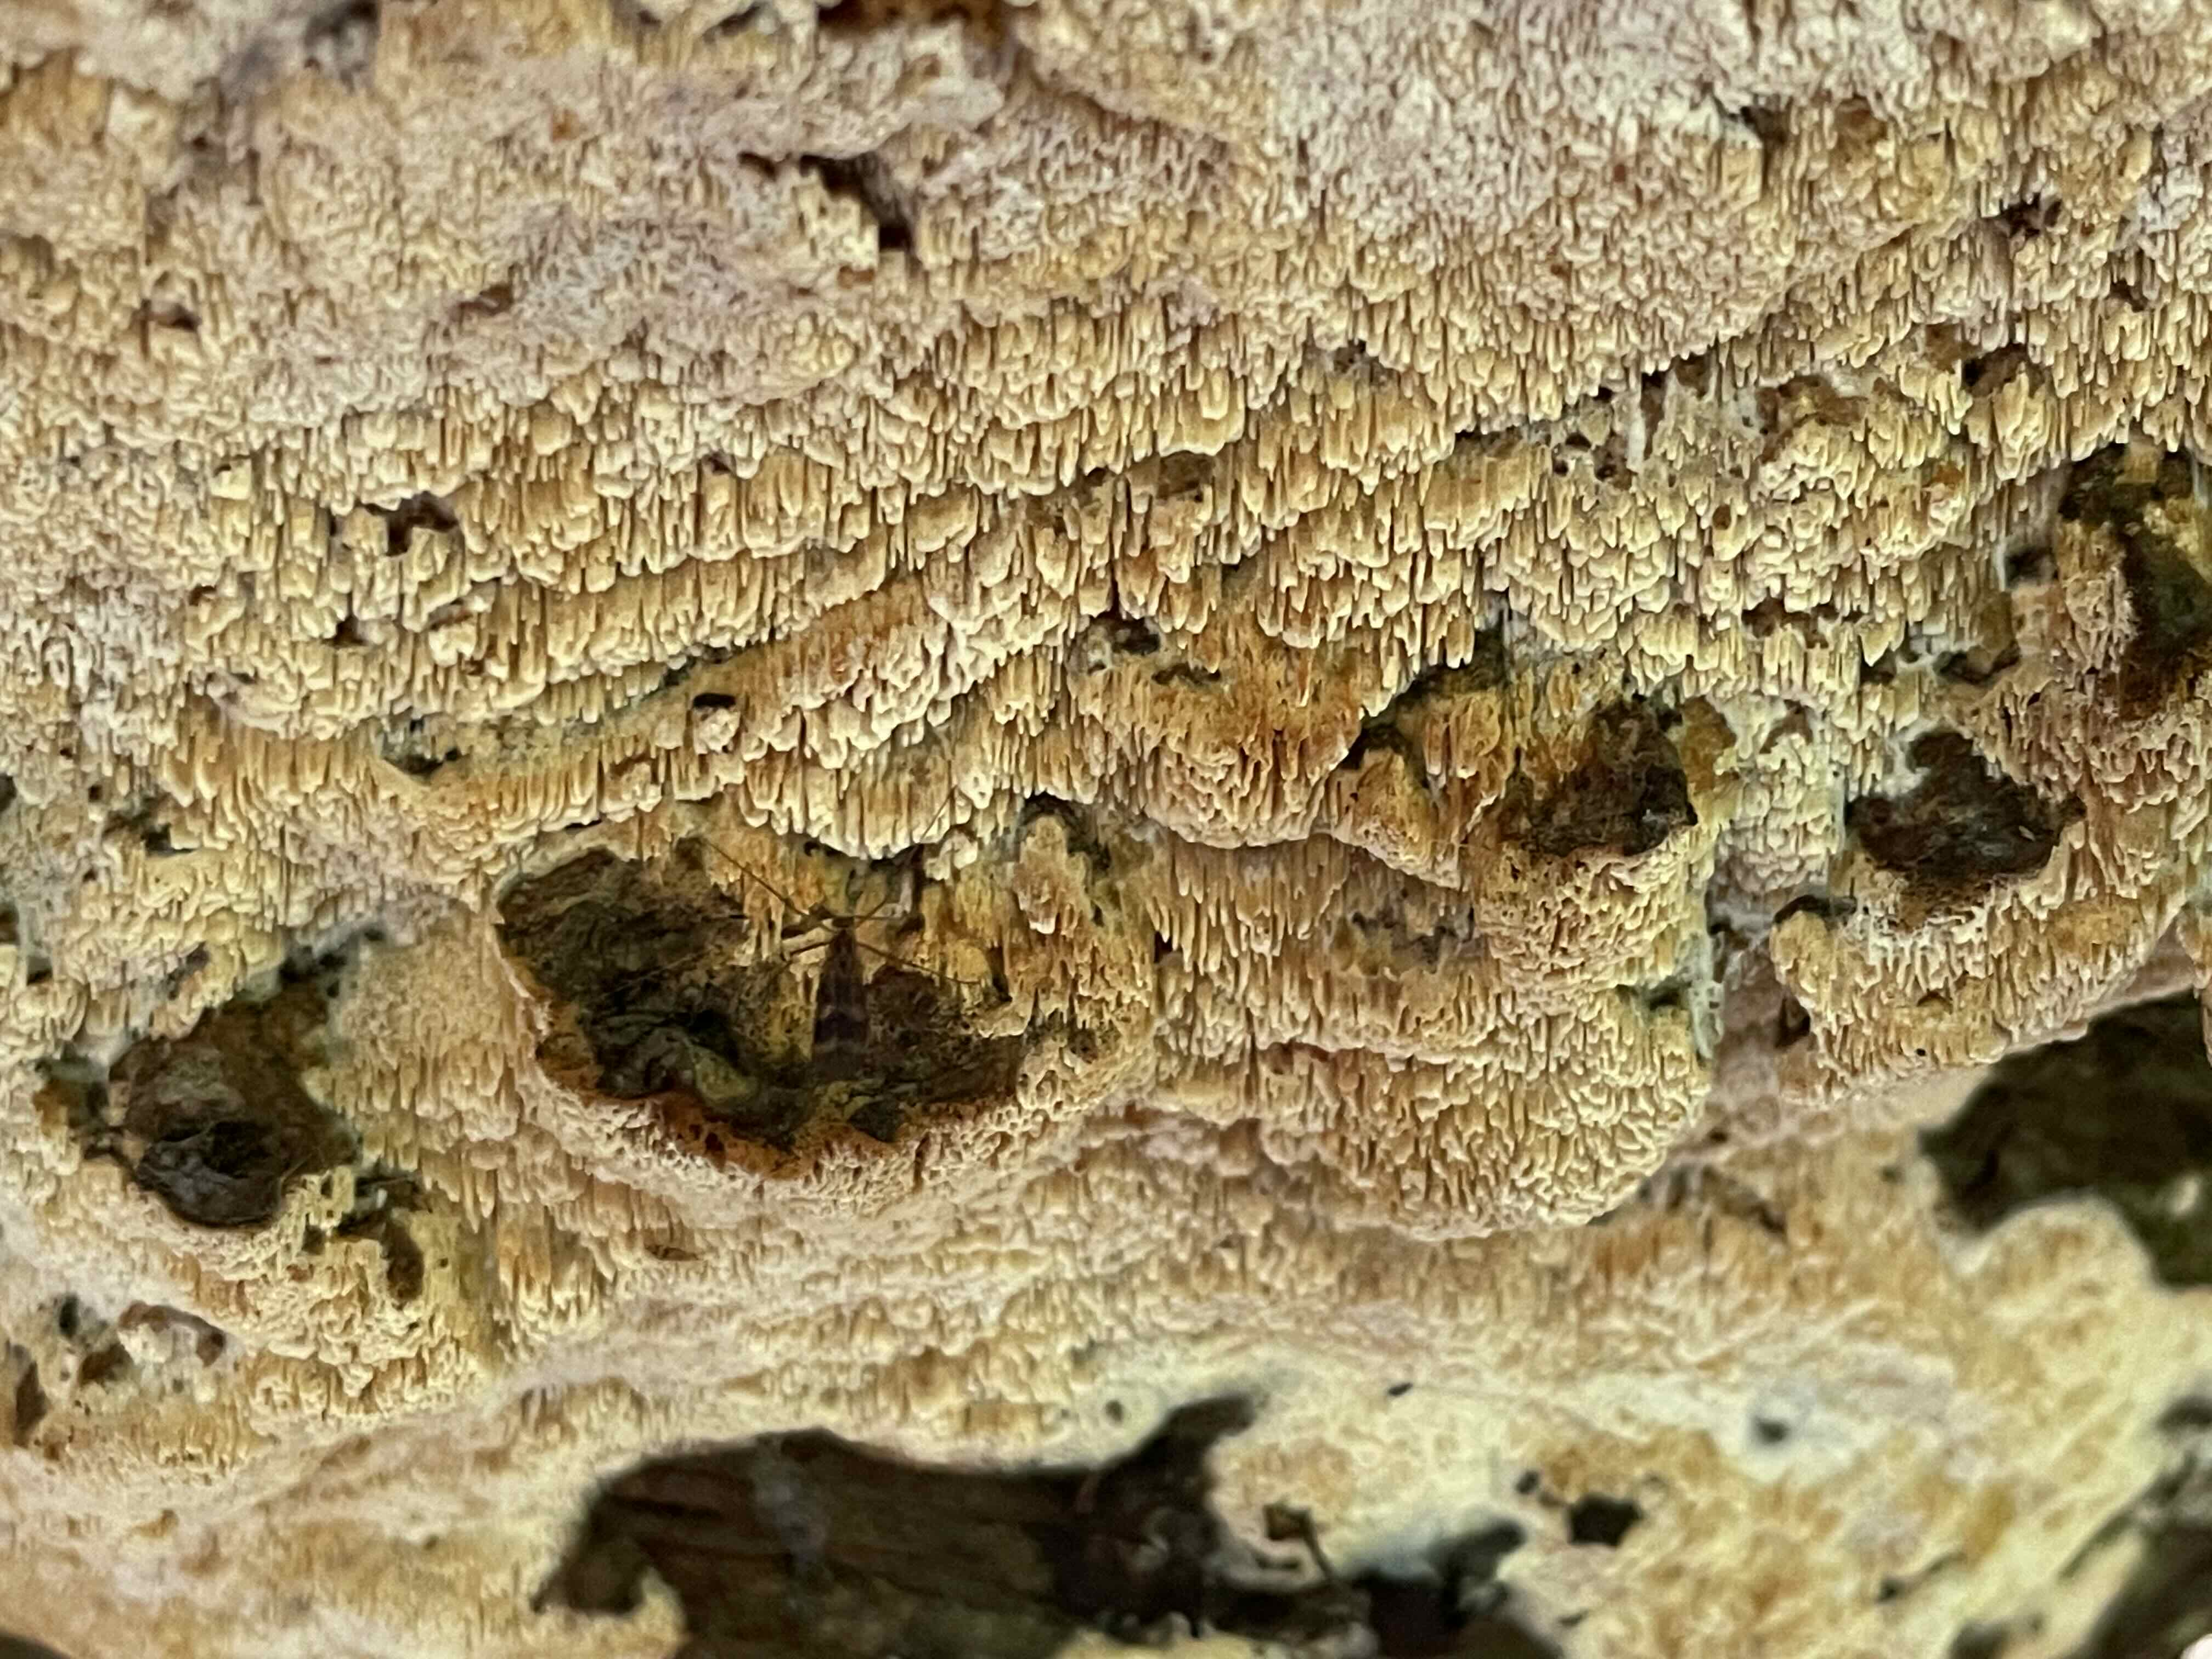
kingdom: Fungi
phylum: Basidiomycota
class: Agaricomycetes
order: Hymenochaetales
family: Schizoporaceae
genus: Xylodon
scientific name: Xylodon
